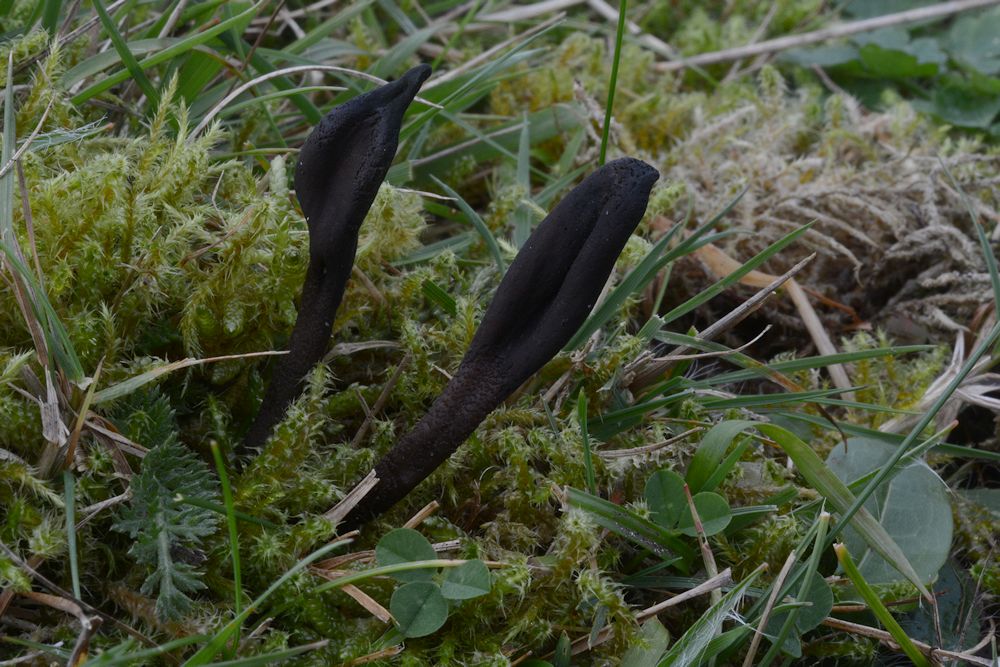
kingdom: Fungi
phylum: Ascomycota
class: Geoglossomycetes
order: Geoglossales
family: Geoglossaceae
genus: Geoglossum
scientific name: Geoglossum fallax
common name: småskællet jordtunge
